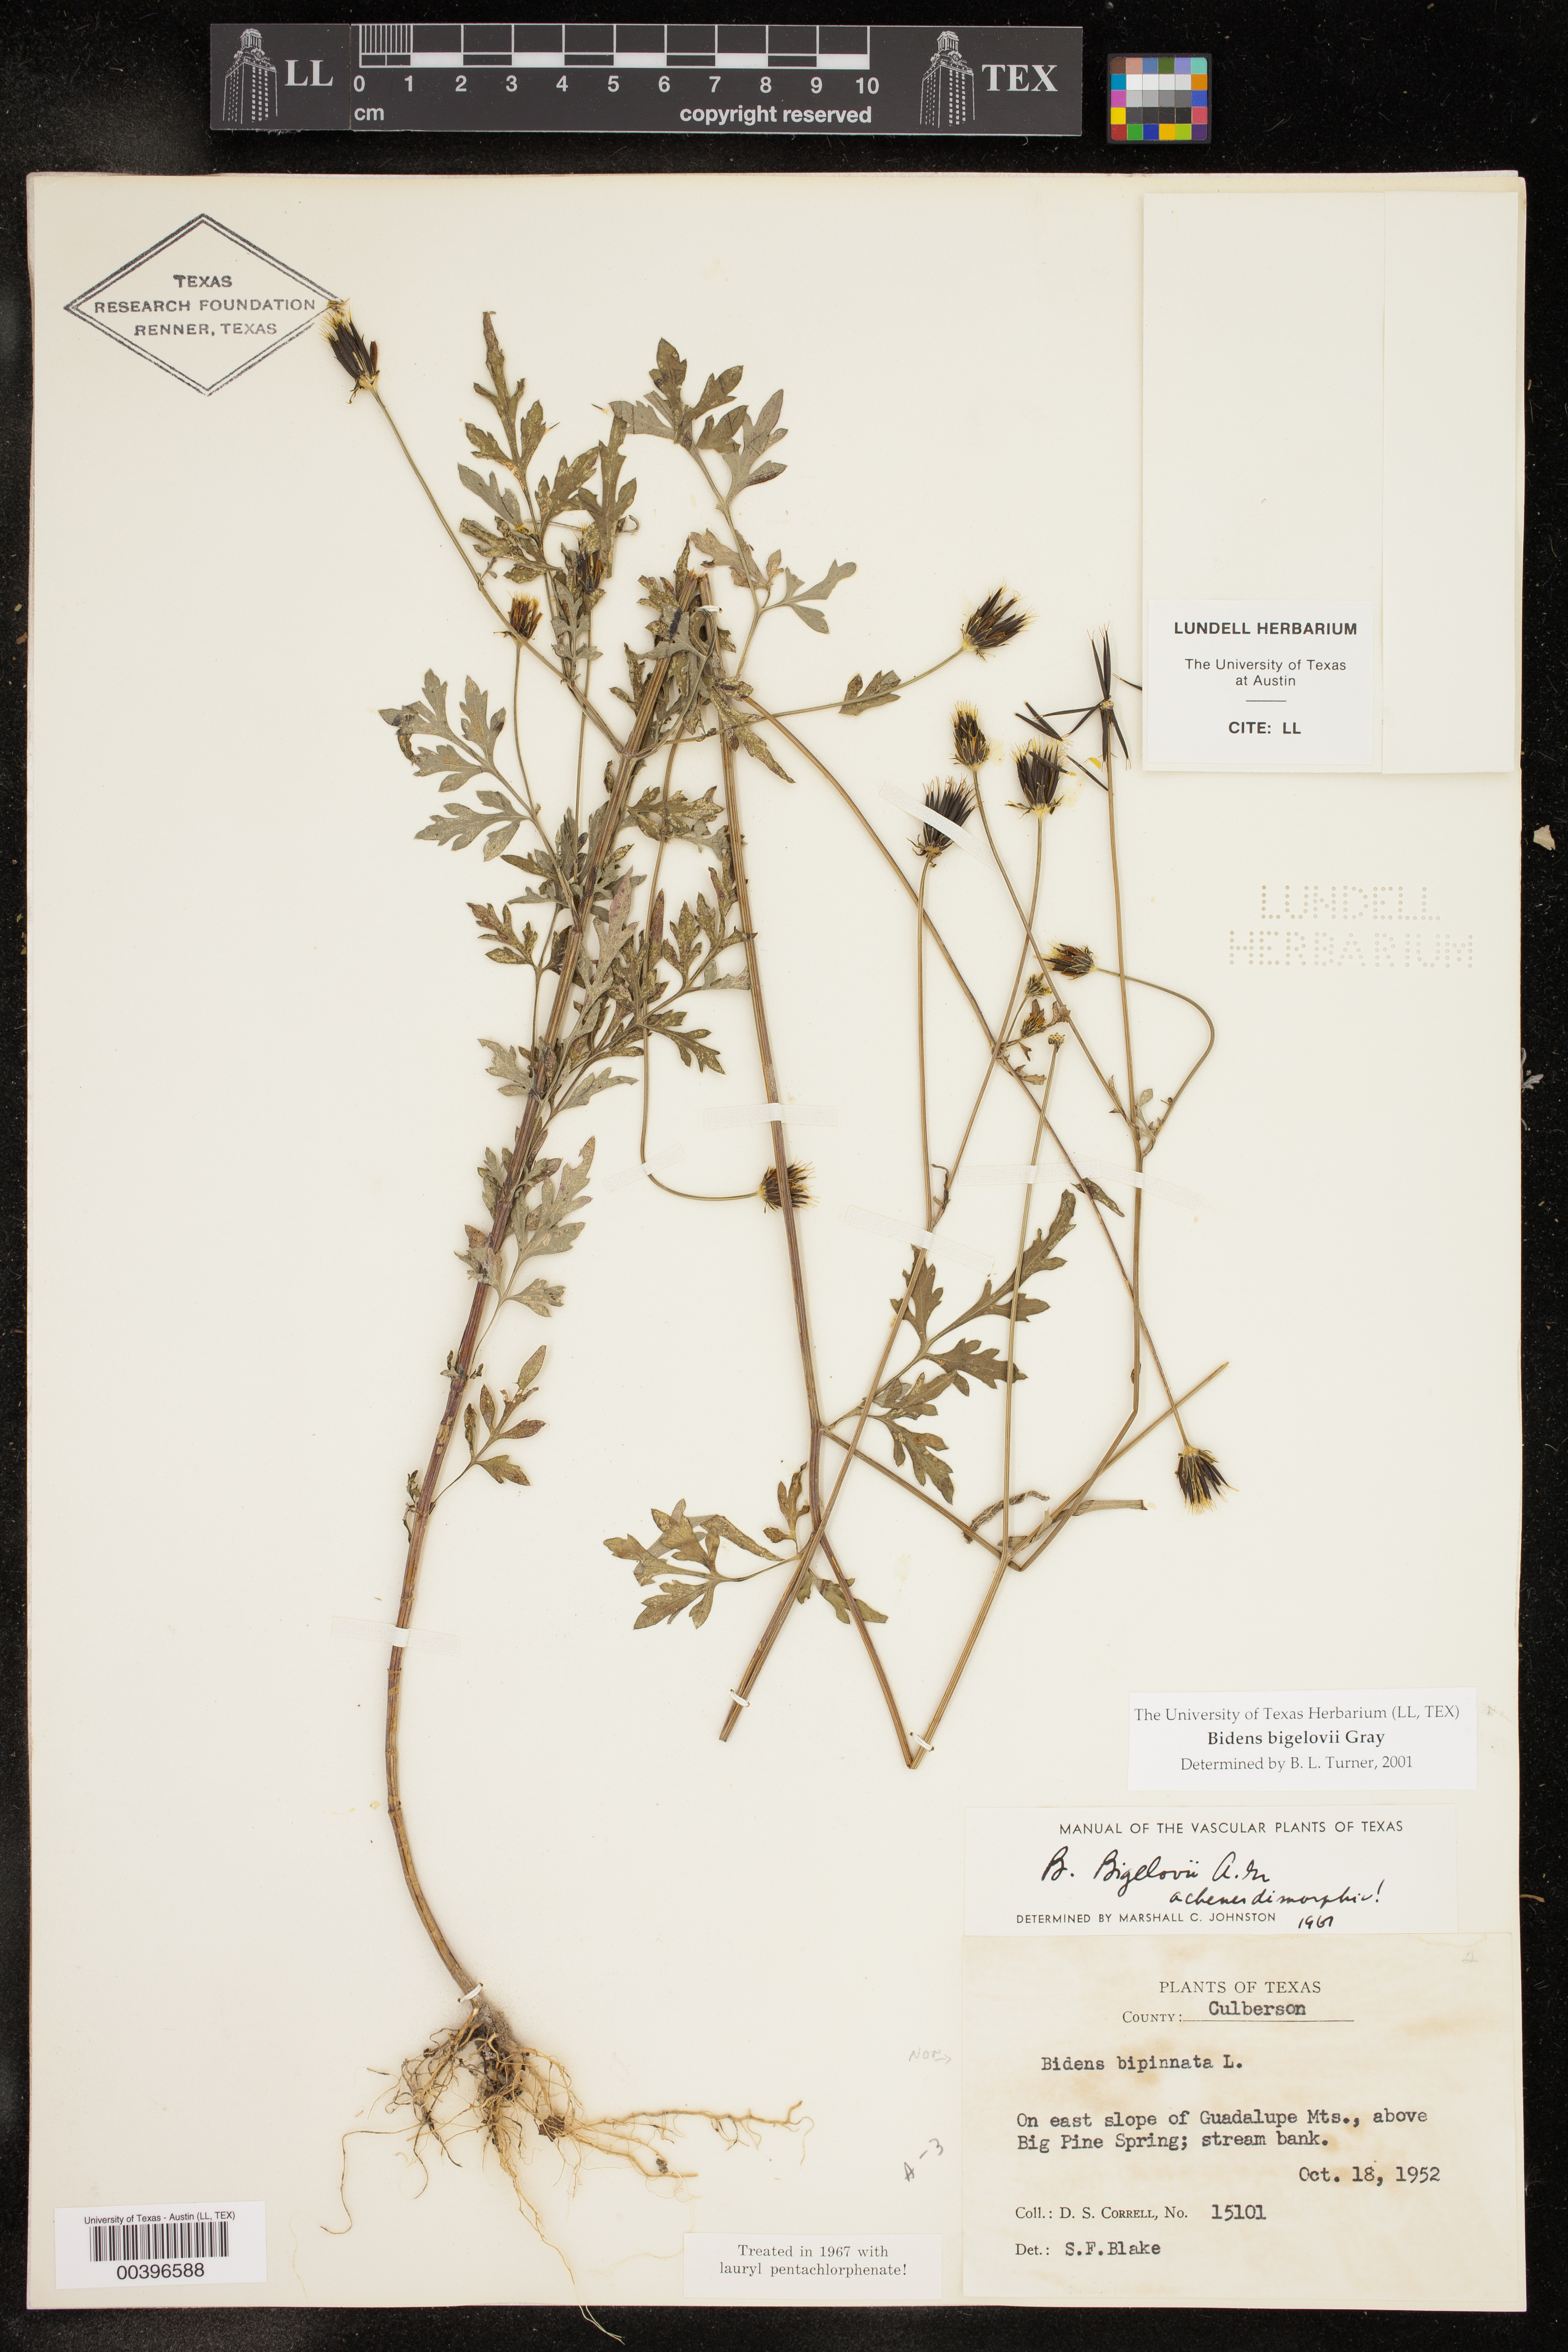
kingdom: Plantae
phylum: Tracheophyta
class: Magnoliopsida
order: Asterales
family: Asteraceae
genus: Bidens
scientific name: Bidens bigelovii
